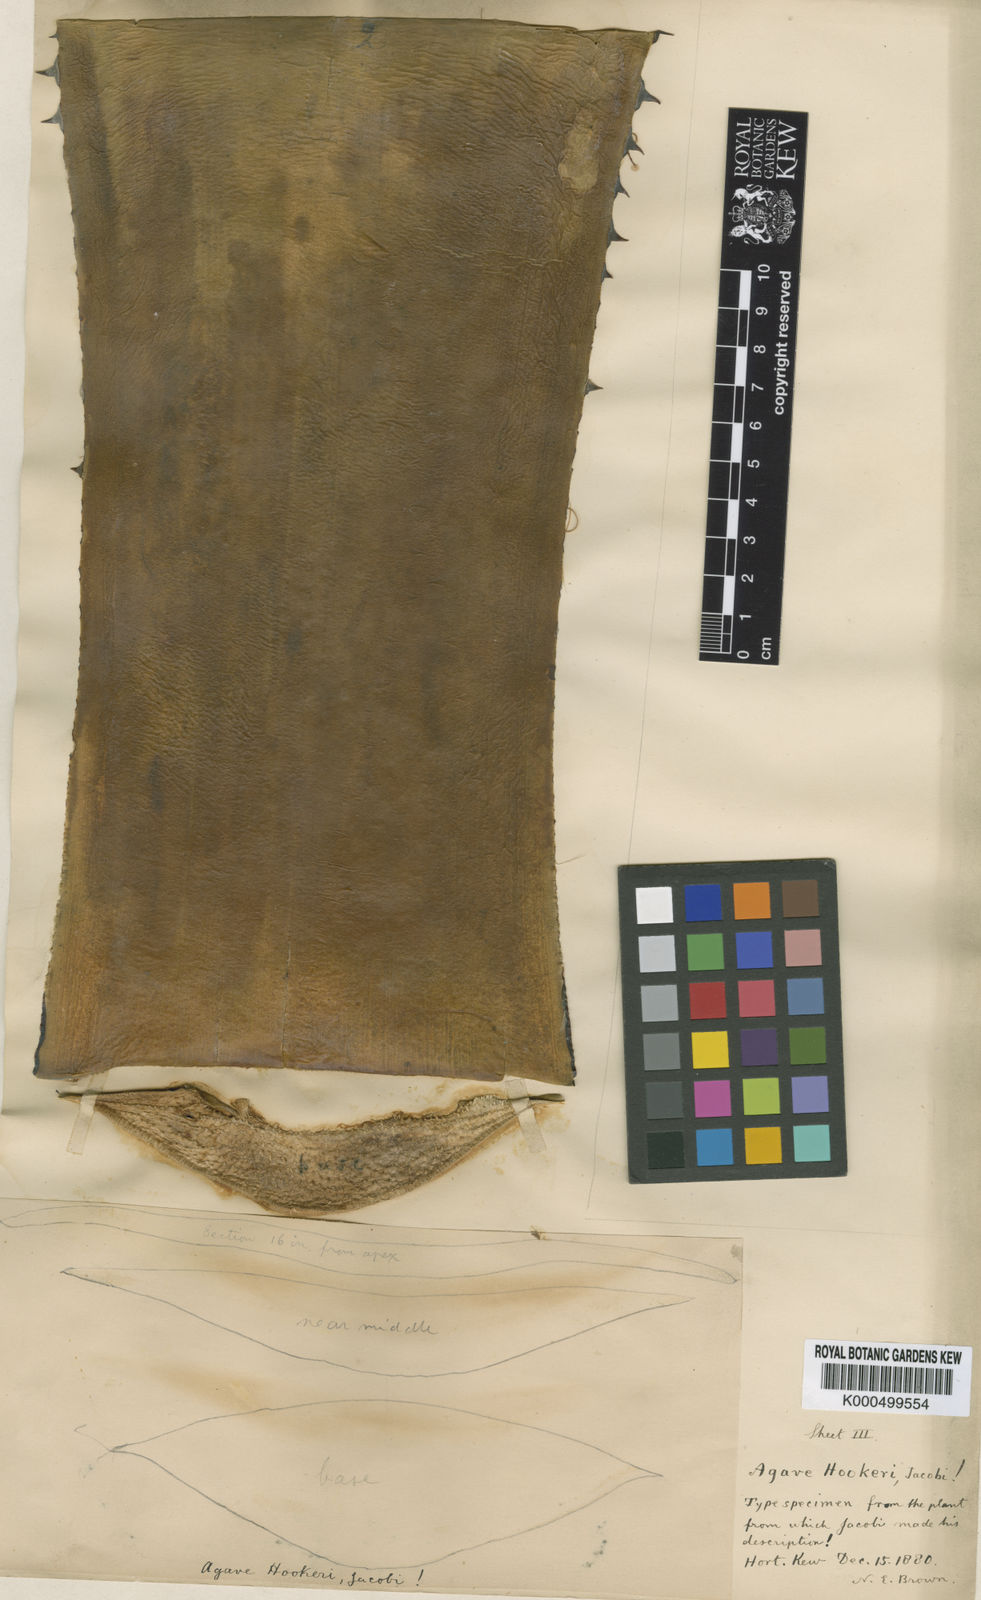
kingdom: Plantae
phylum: Tracheophyta
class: Liliopsida
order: Asparagales
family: Asparagaceae
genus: Agave
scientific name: Agave hookeri
